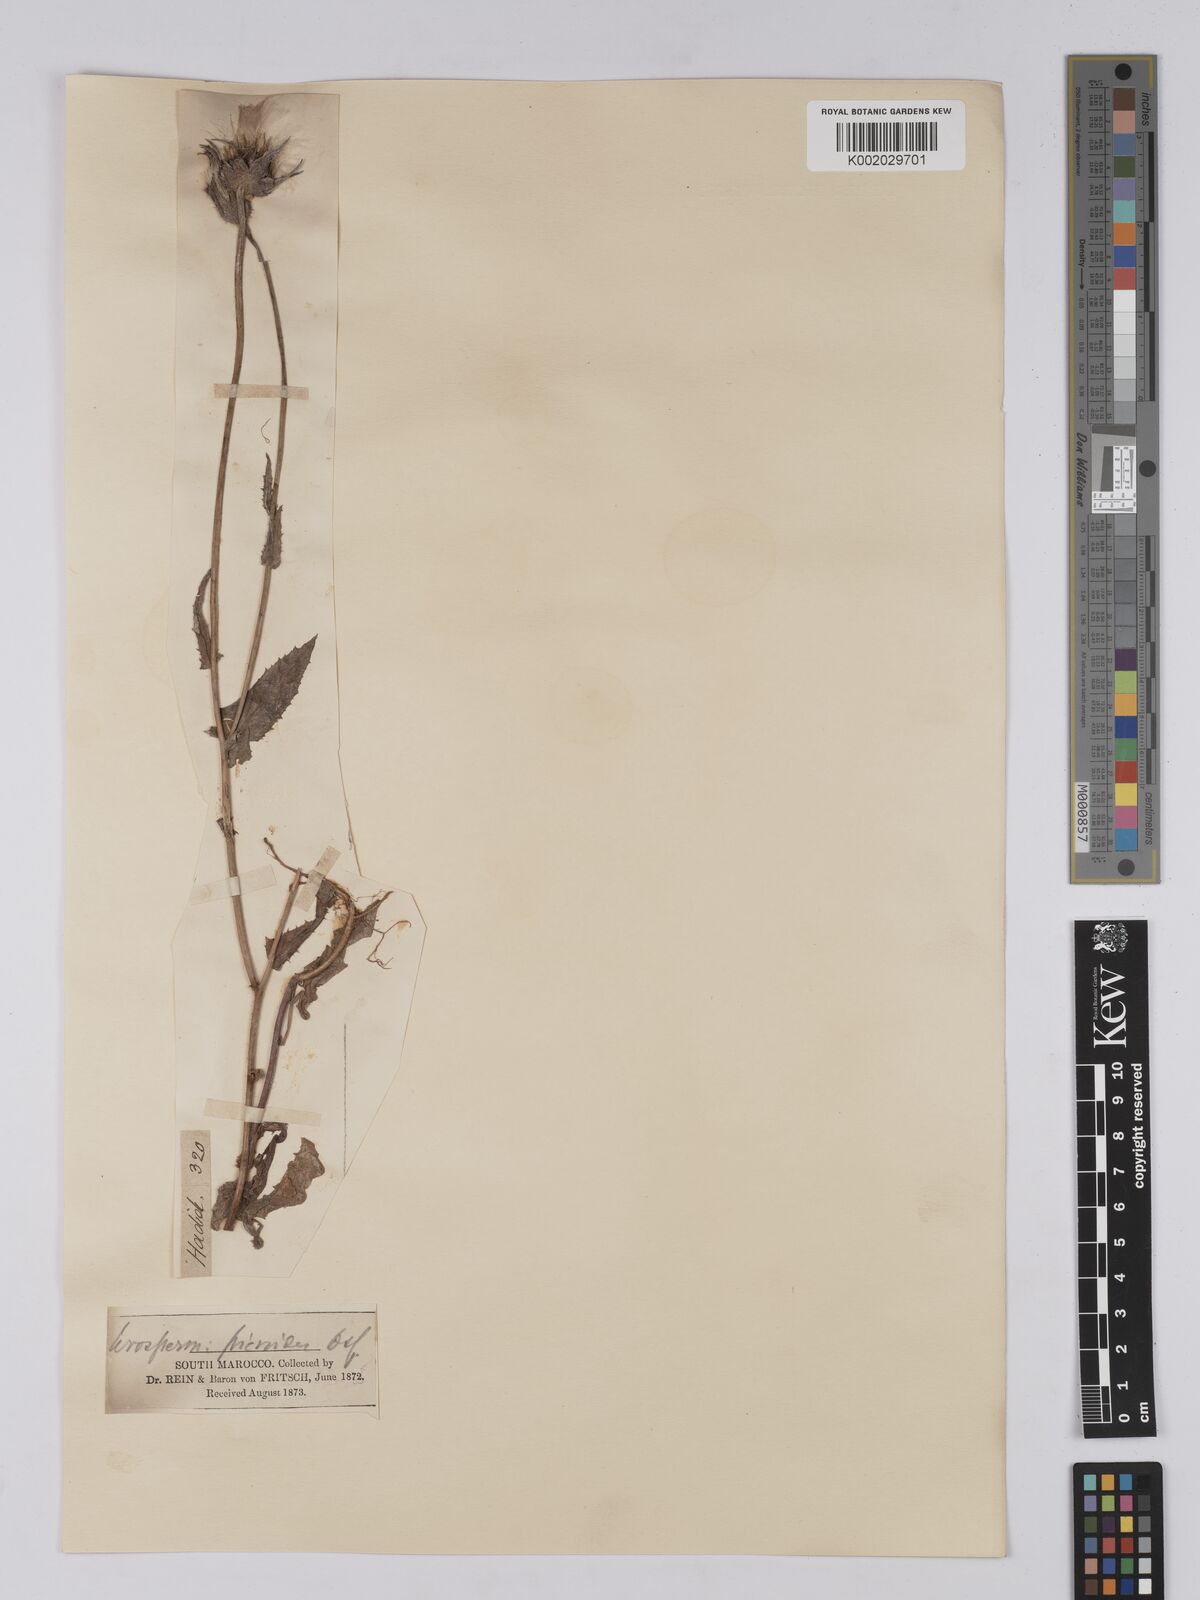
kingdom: Plantae
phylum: Tracheophyta
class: Magnoliopsida
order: Asterales
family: Asteraceae
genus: Urospermum
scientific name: Urospermum picroides
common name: False hawkbit
